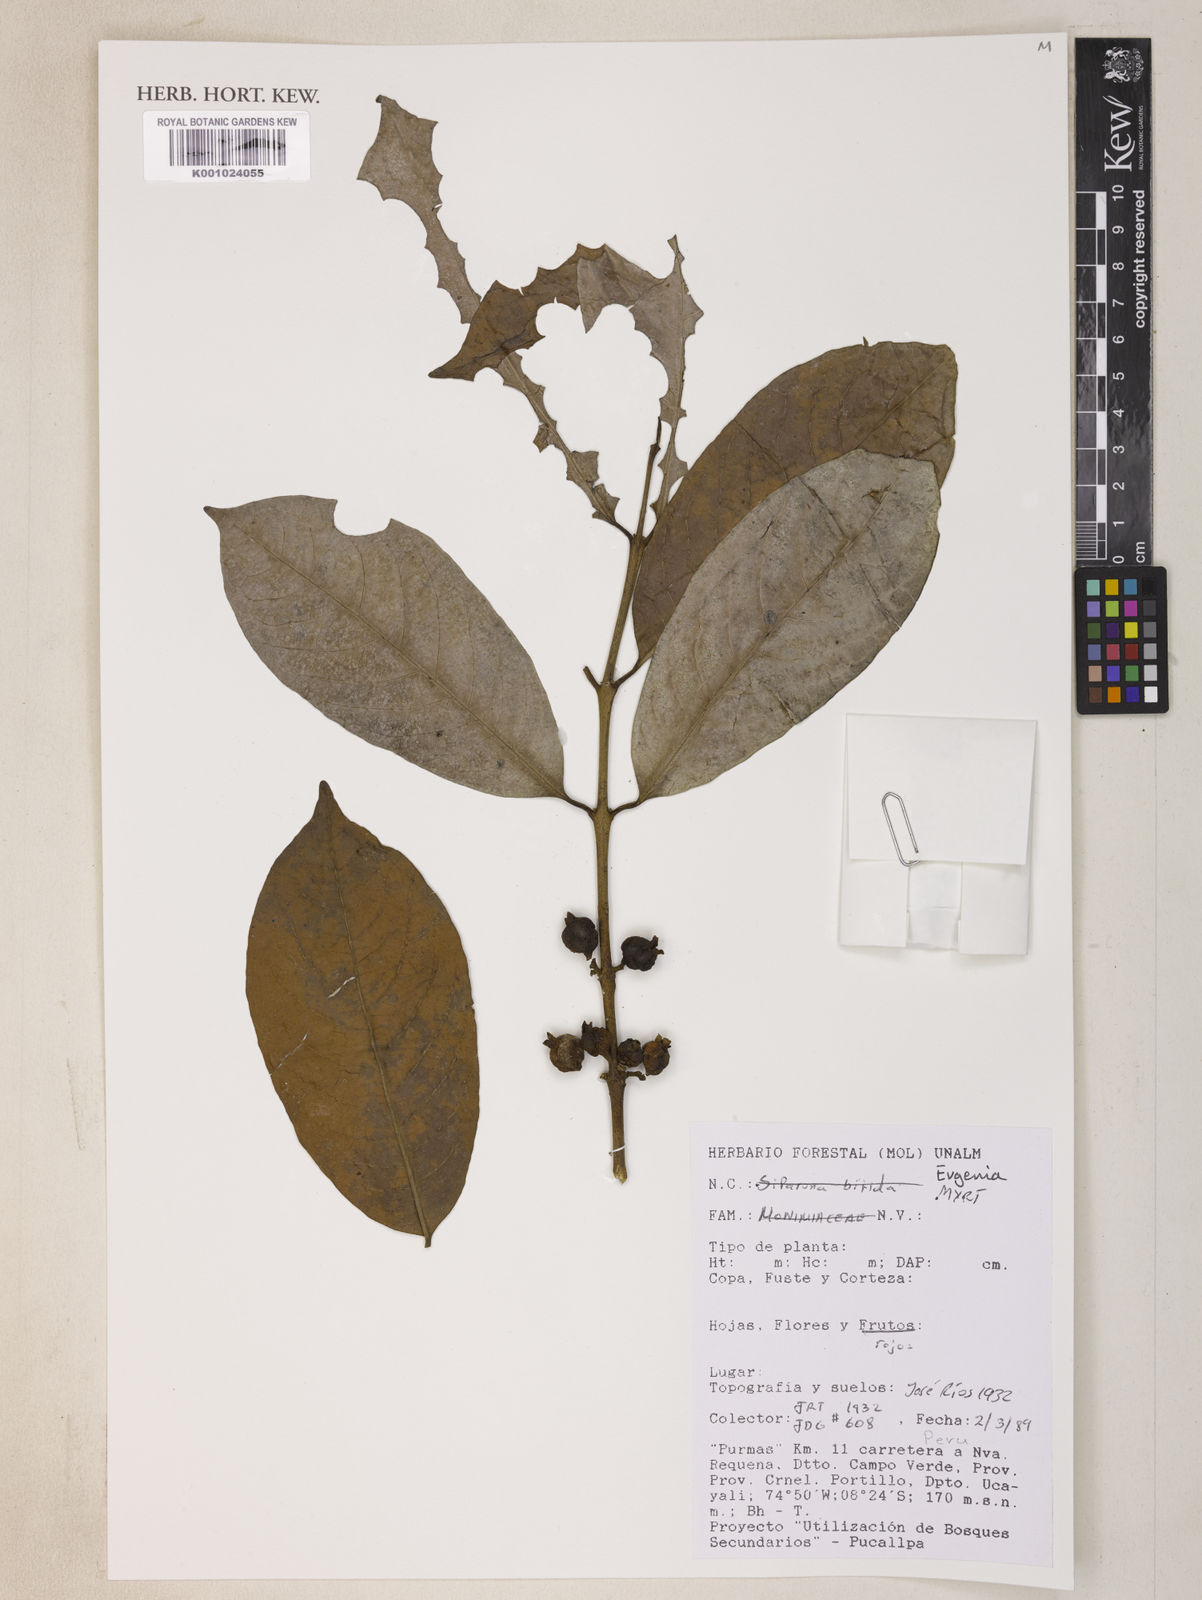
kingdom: Plantae
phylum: Tracheophyta
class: Magnoliopsida
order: Myrtales
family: Myrtaceae
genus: Eugenia
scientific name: Eugenia
